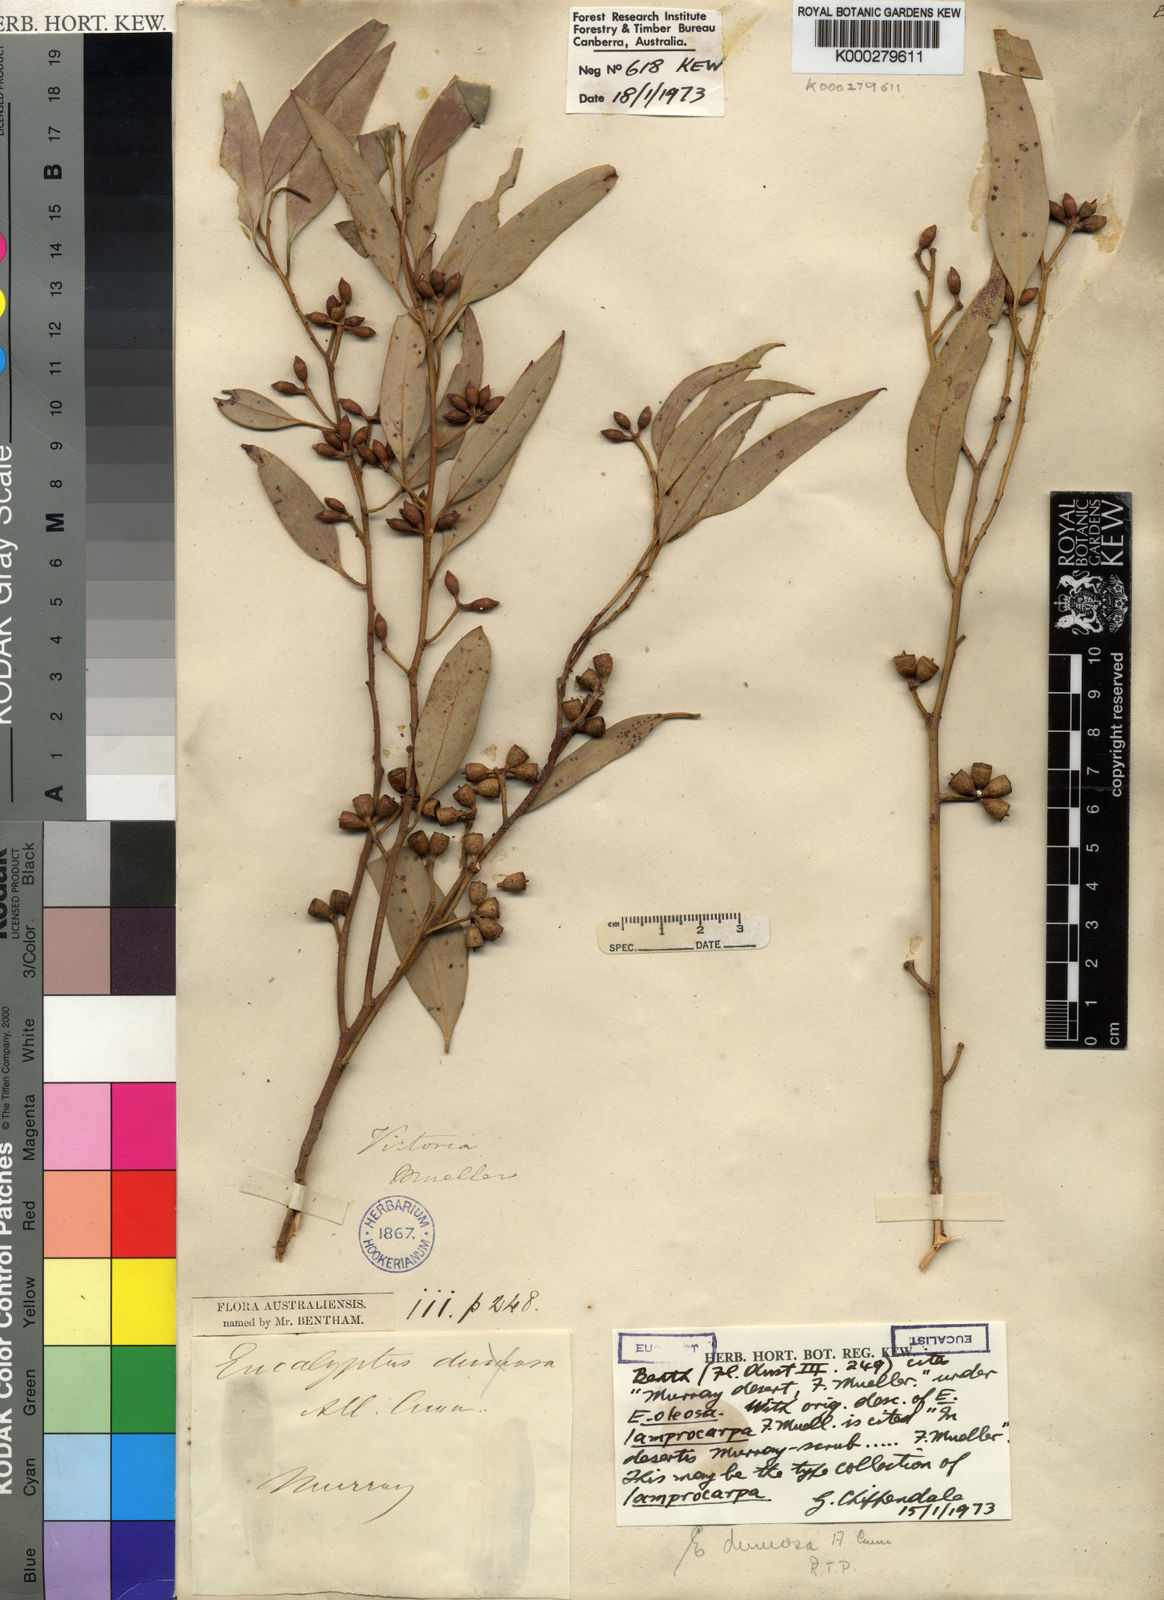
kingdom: Plantae
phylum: Tracheophyta
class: Magnoliopsida
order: Myrtales
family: Myrtaceae
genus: Eucalyptus
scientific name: Eucalyptus dumosa
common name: Dumosa mallee
